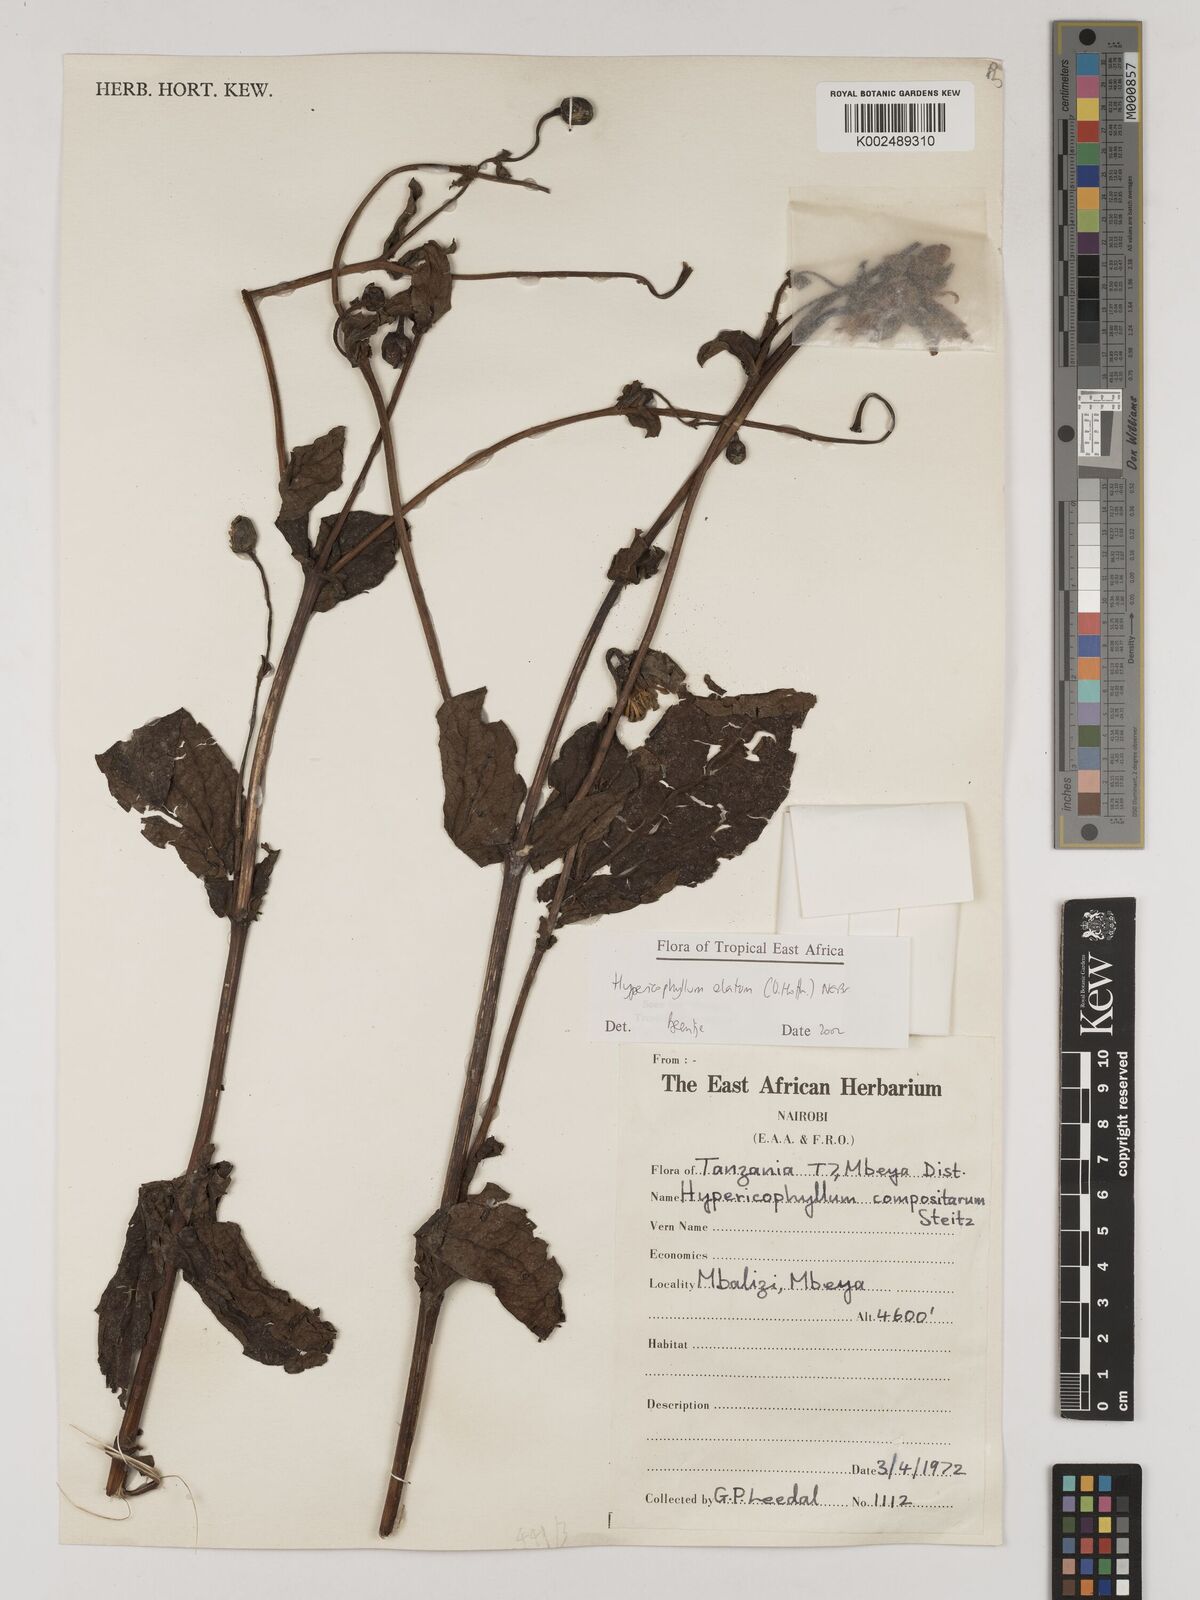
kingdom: Plantae
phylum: Tracheophyta
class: Magnoliopsida
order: Asterales
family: Asteraceae
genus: Hypericophyllum
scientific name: Hypericophyllum elatum
